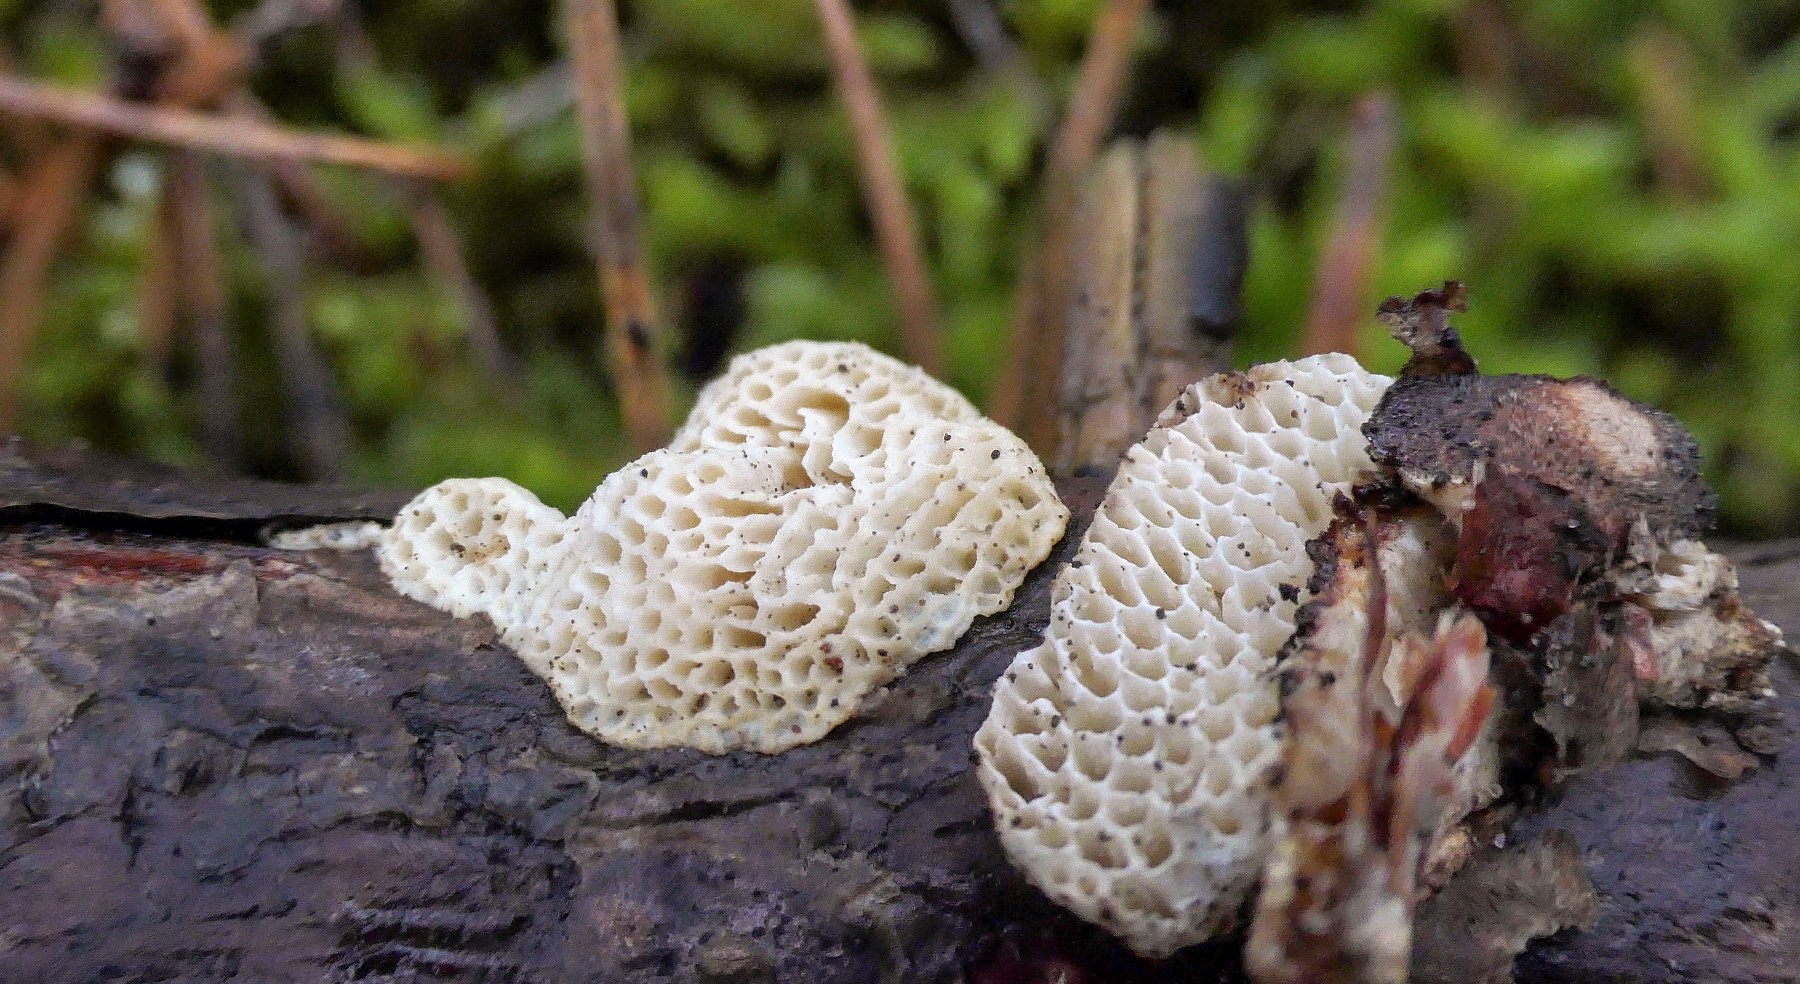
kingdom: Fungi
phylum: Basidiomycota
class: Agaricomycetes
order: Polyporales
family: Fomitopsidaceae
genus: Fomitopsis
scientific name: Fomitopsis
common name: fyrre-skiveporesvamp
